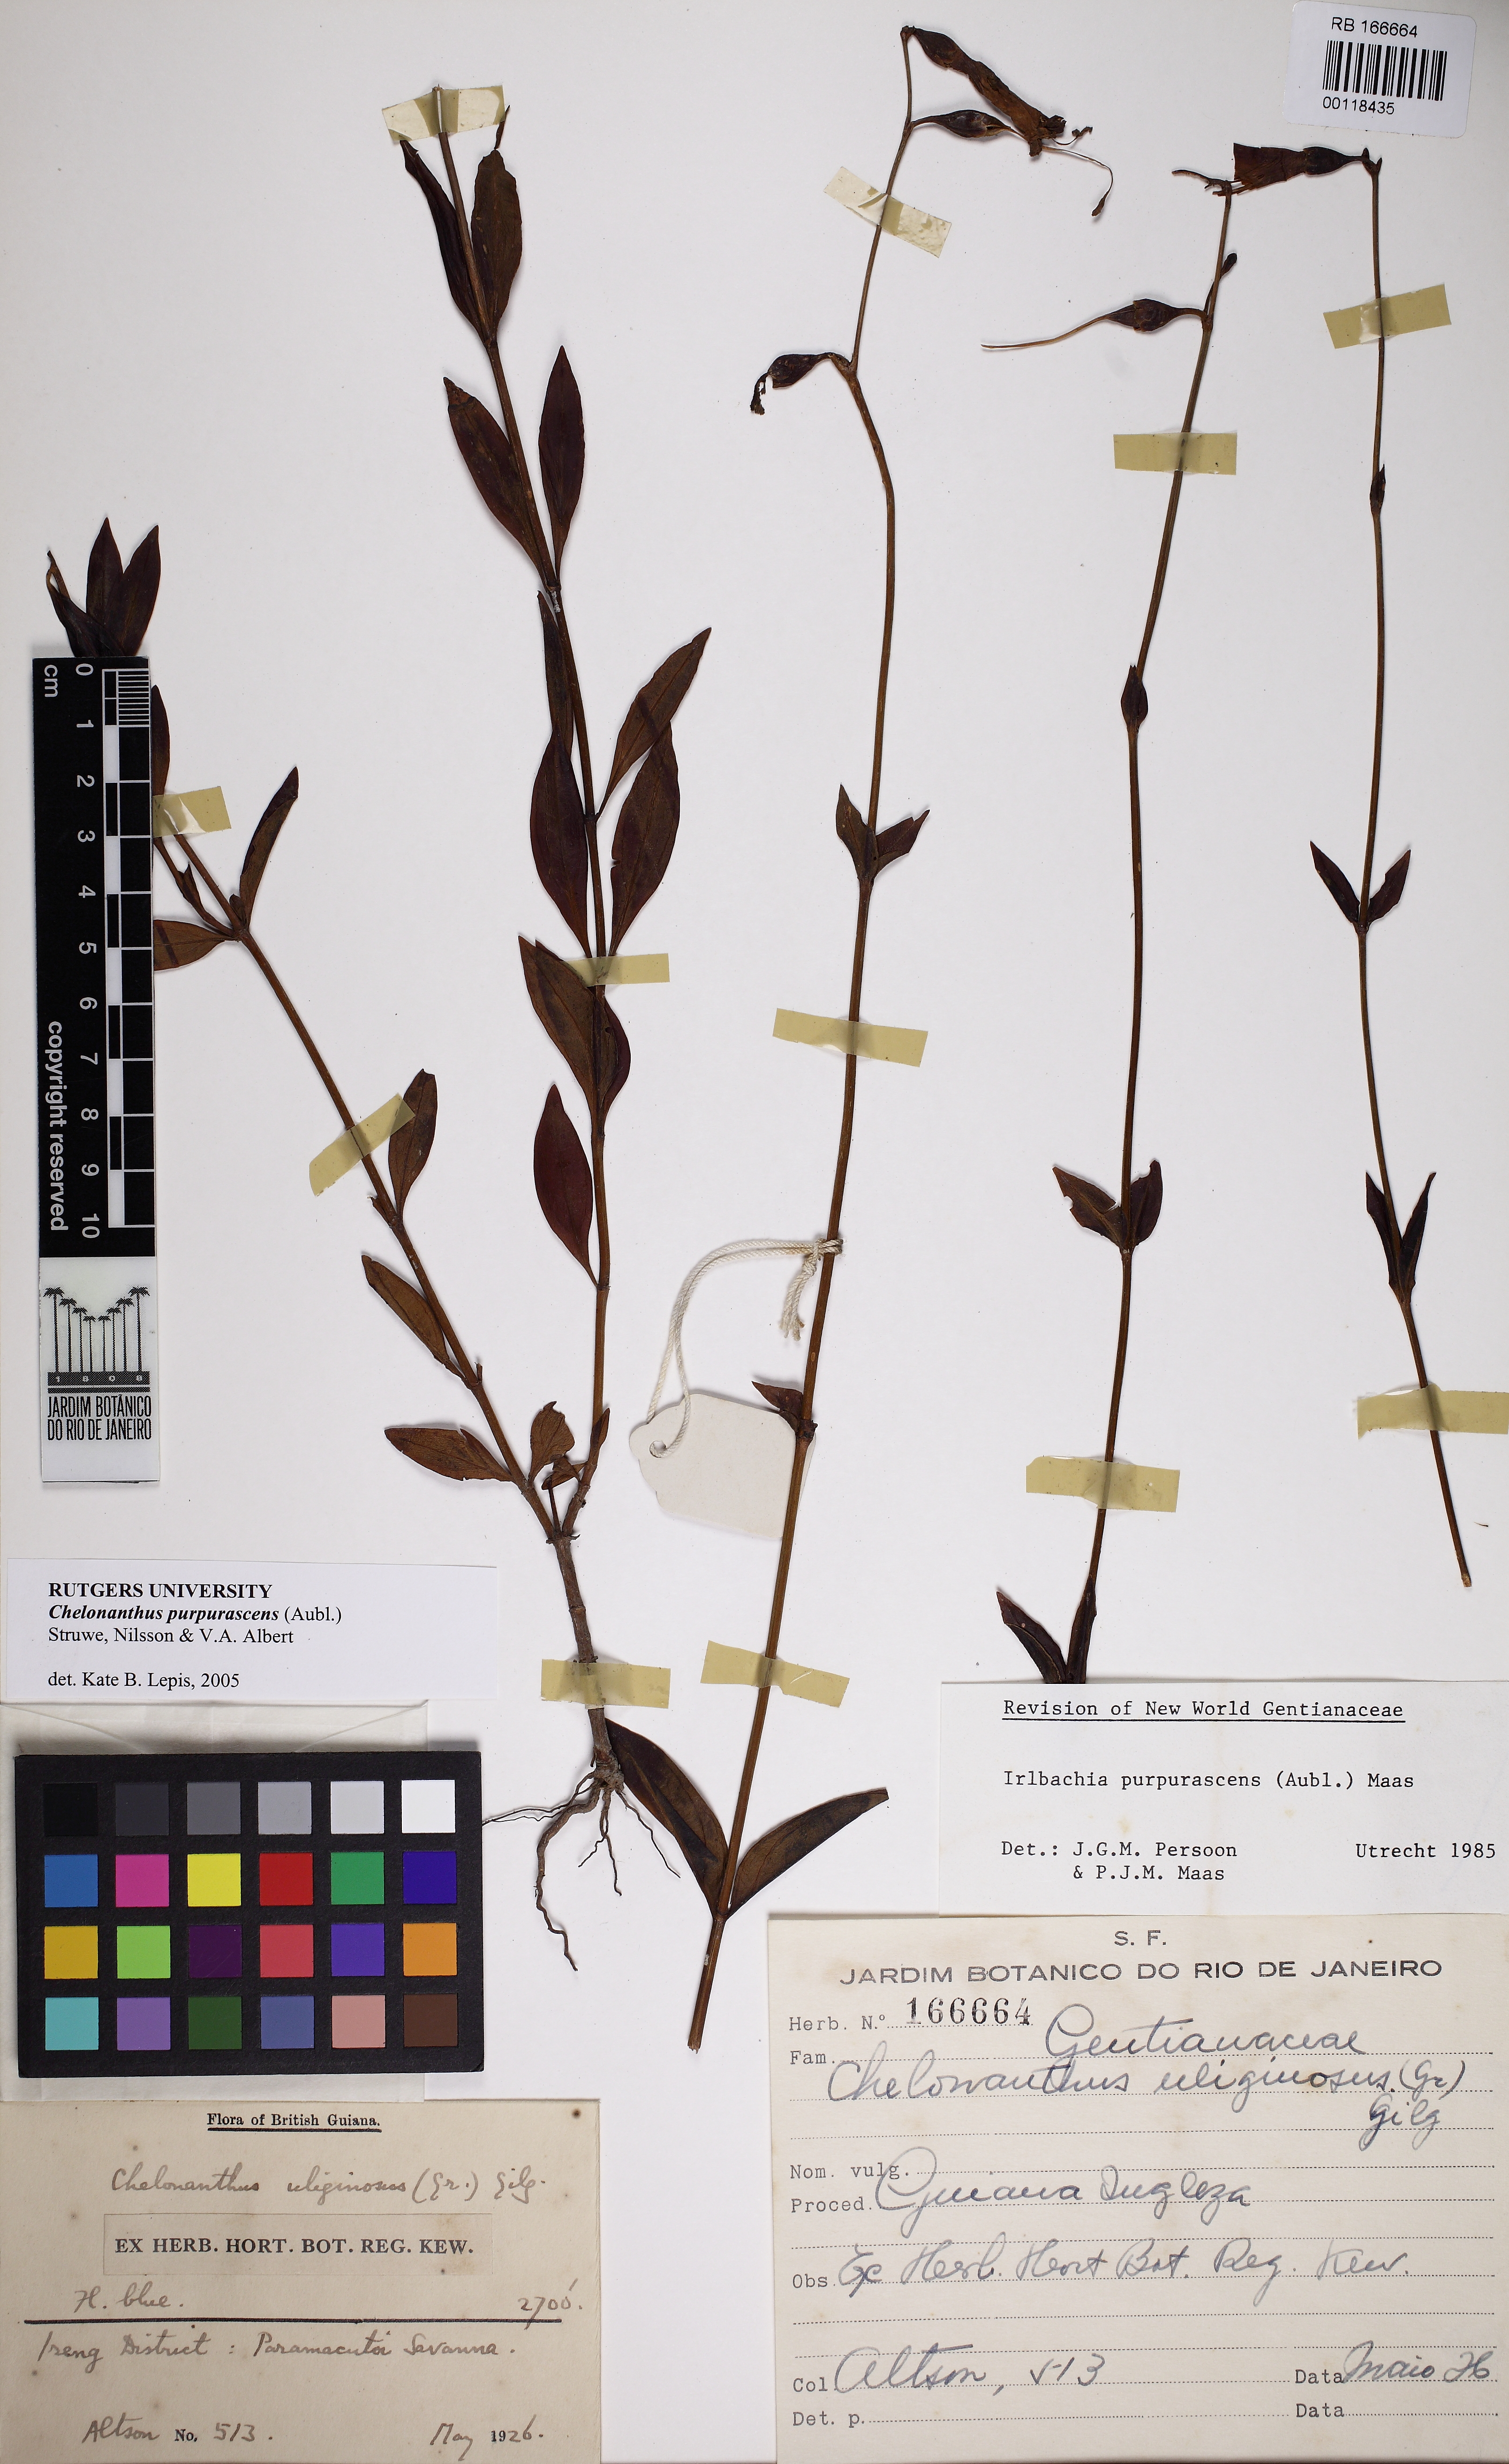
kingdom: Plantae
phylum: Tracheophyta
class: Magnoliopsida
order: Gentianales
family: Gentianaceae
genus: Chelonanthus
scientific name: Chelonanthus purpurascens
